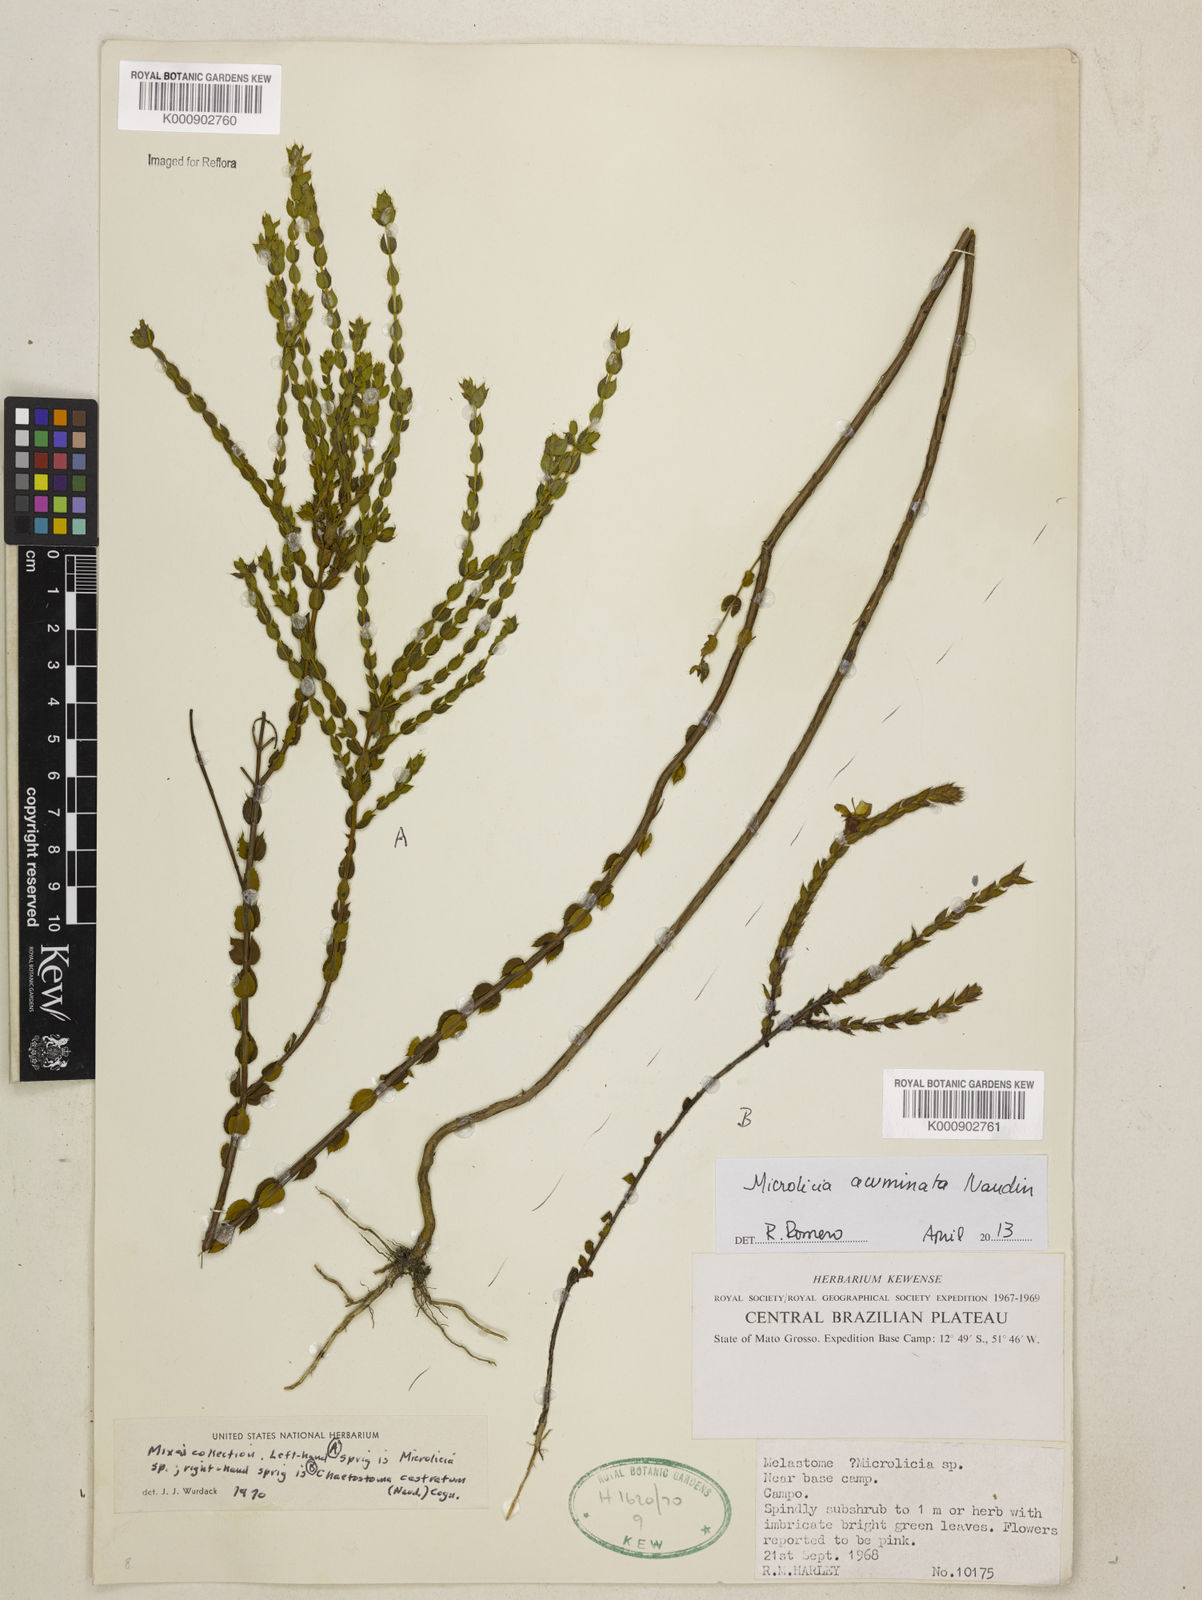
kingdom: Plantae
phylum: Tracheophyta
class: Magnoliopsida
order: Myrtales
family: Melastomataceae
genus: Microlicia
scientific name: Microlicia
